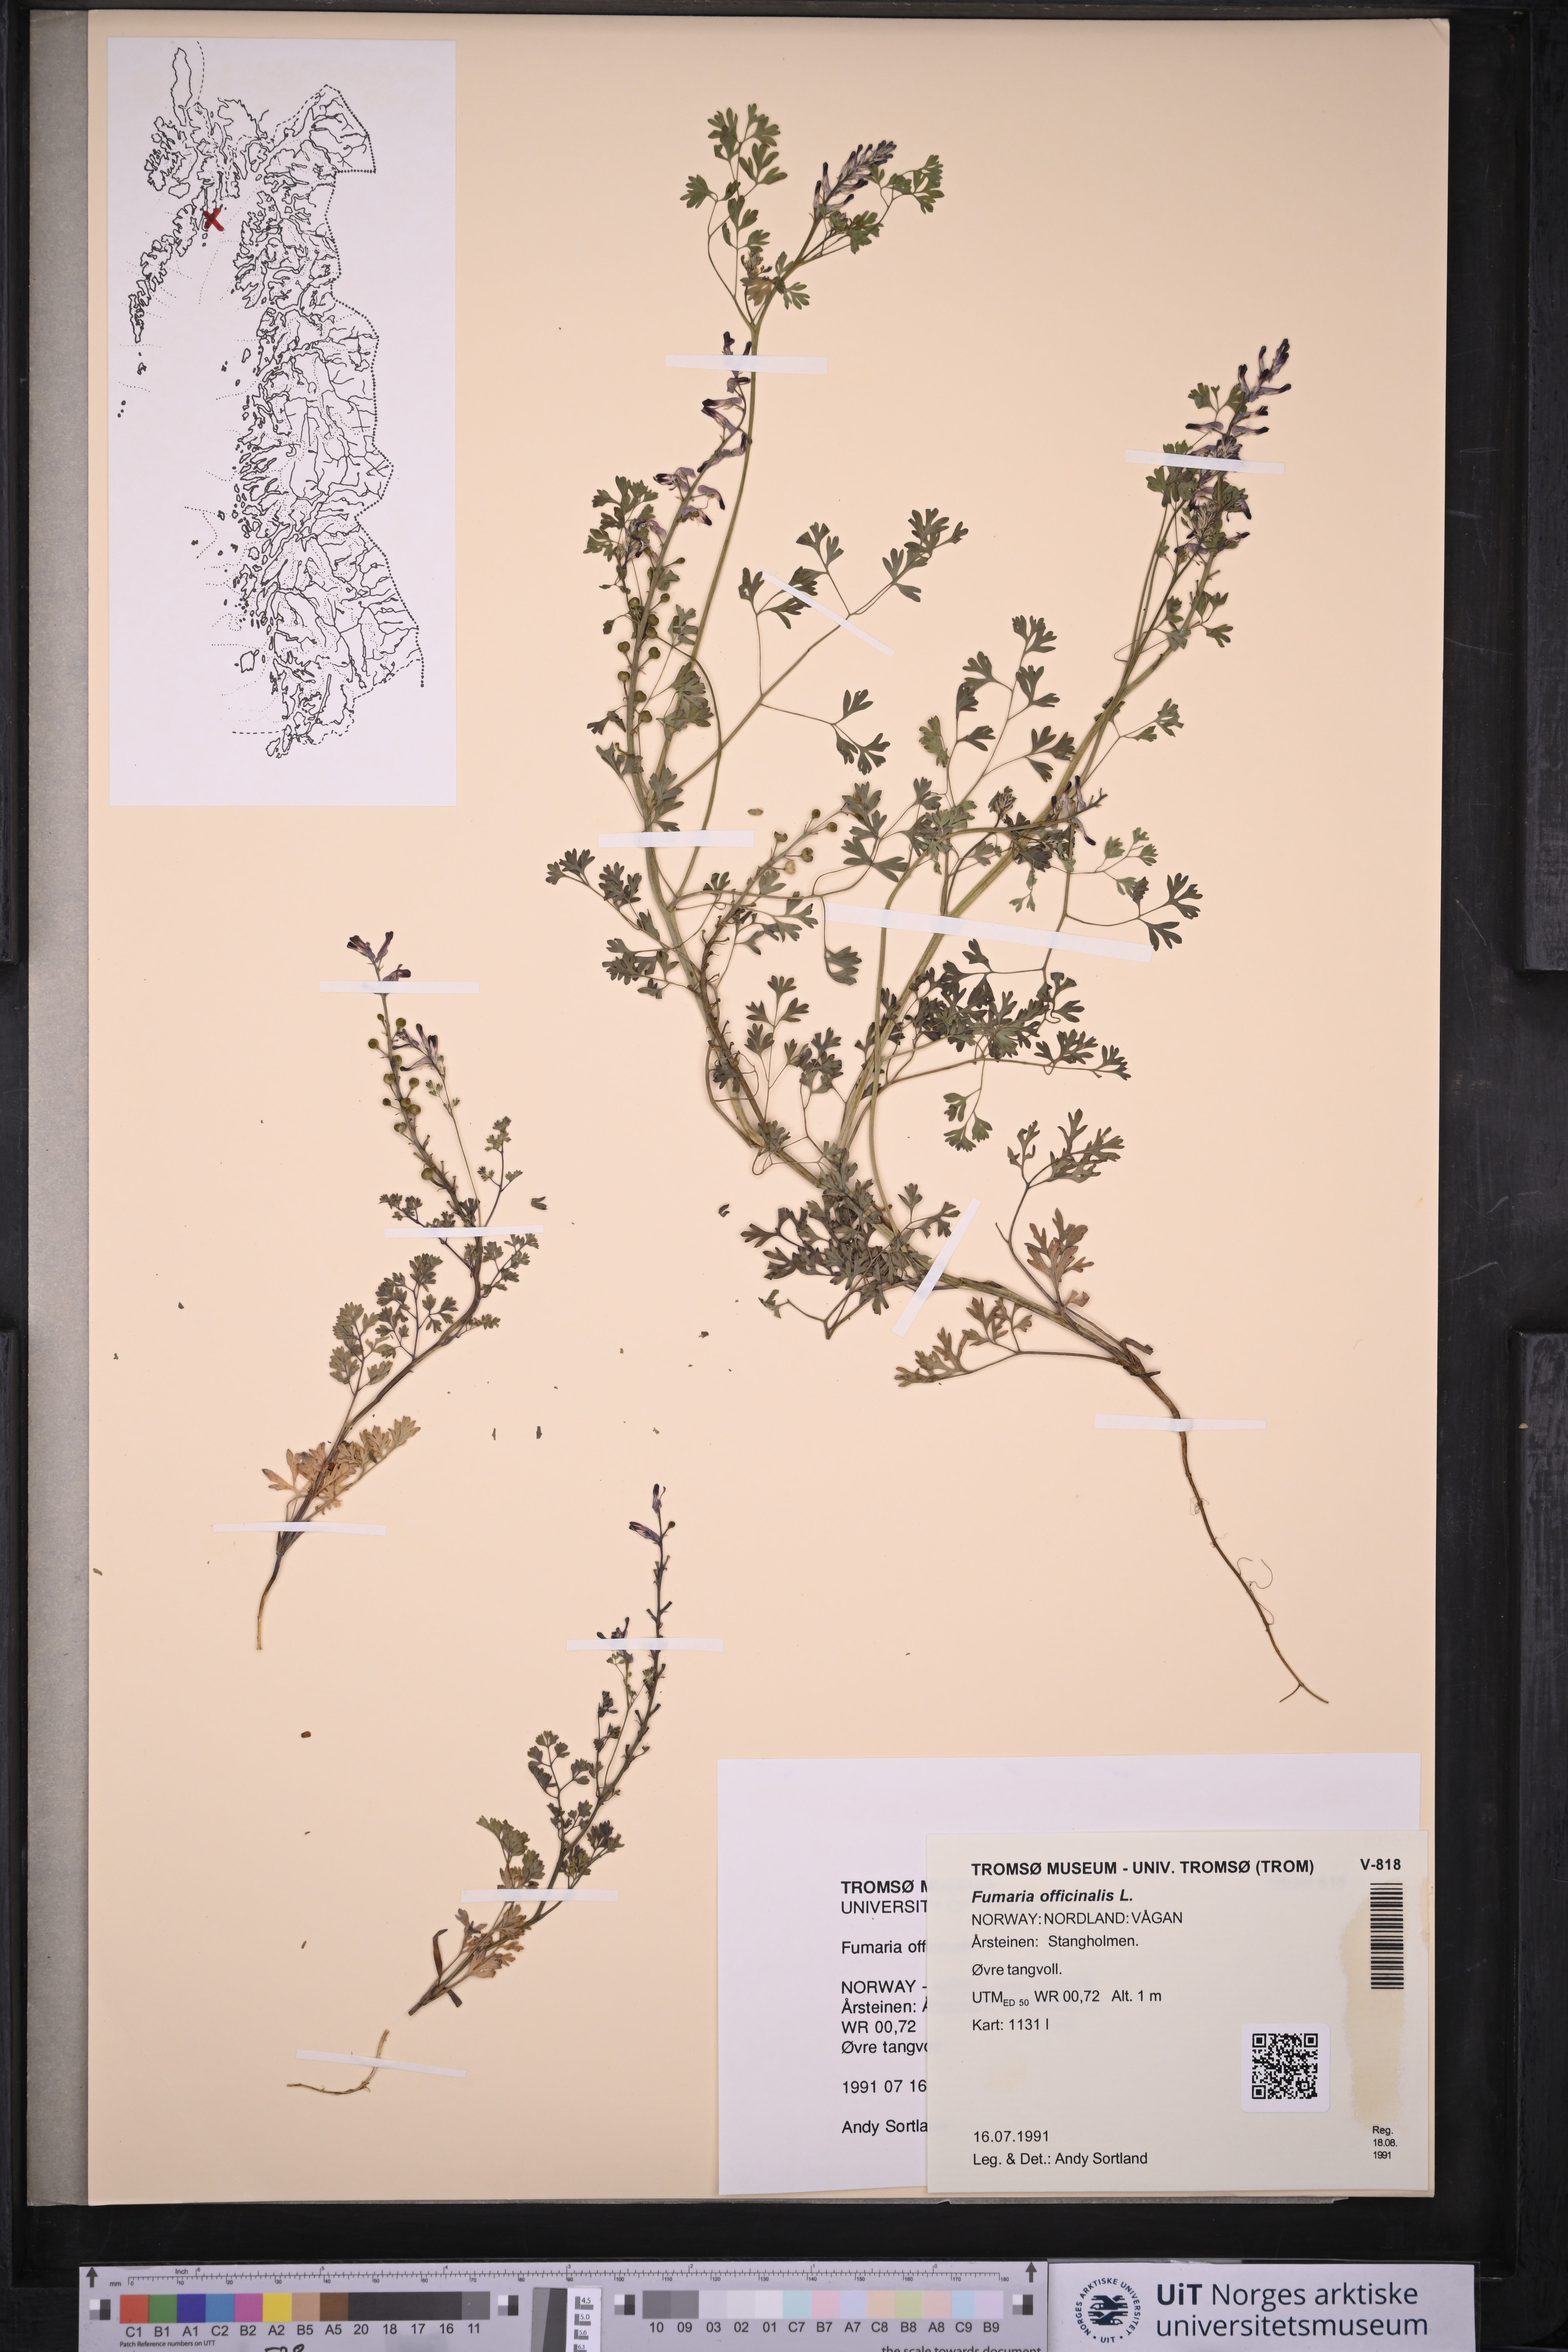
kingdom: Plantae
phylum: Tracheophyta
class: Magnoliopsida
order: Ranunculales
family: Papaveraceae
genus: Fumaria
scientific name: Fumaria officinalis
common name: Common fumitory
